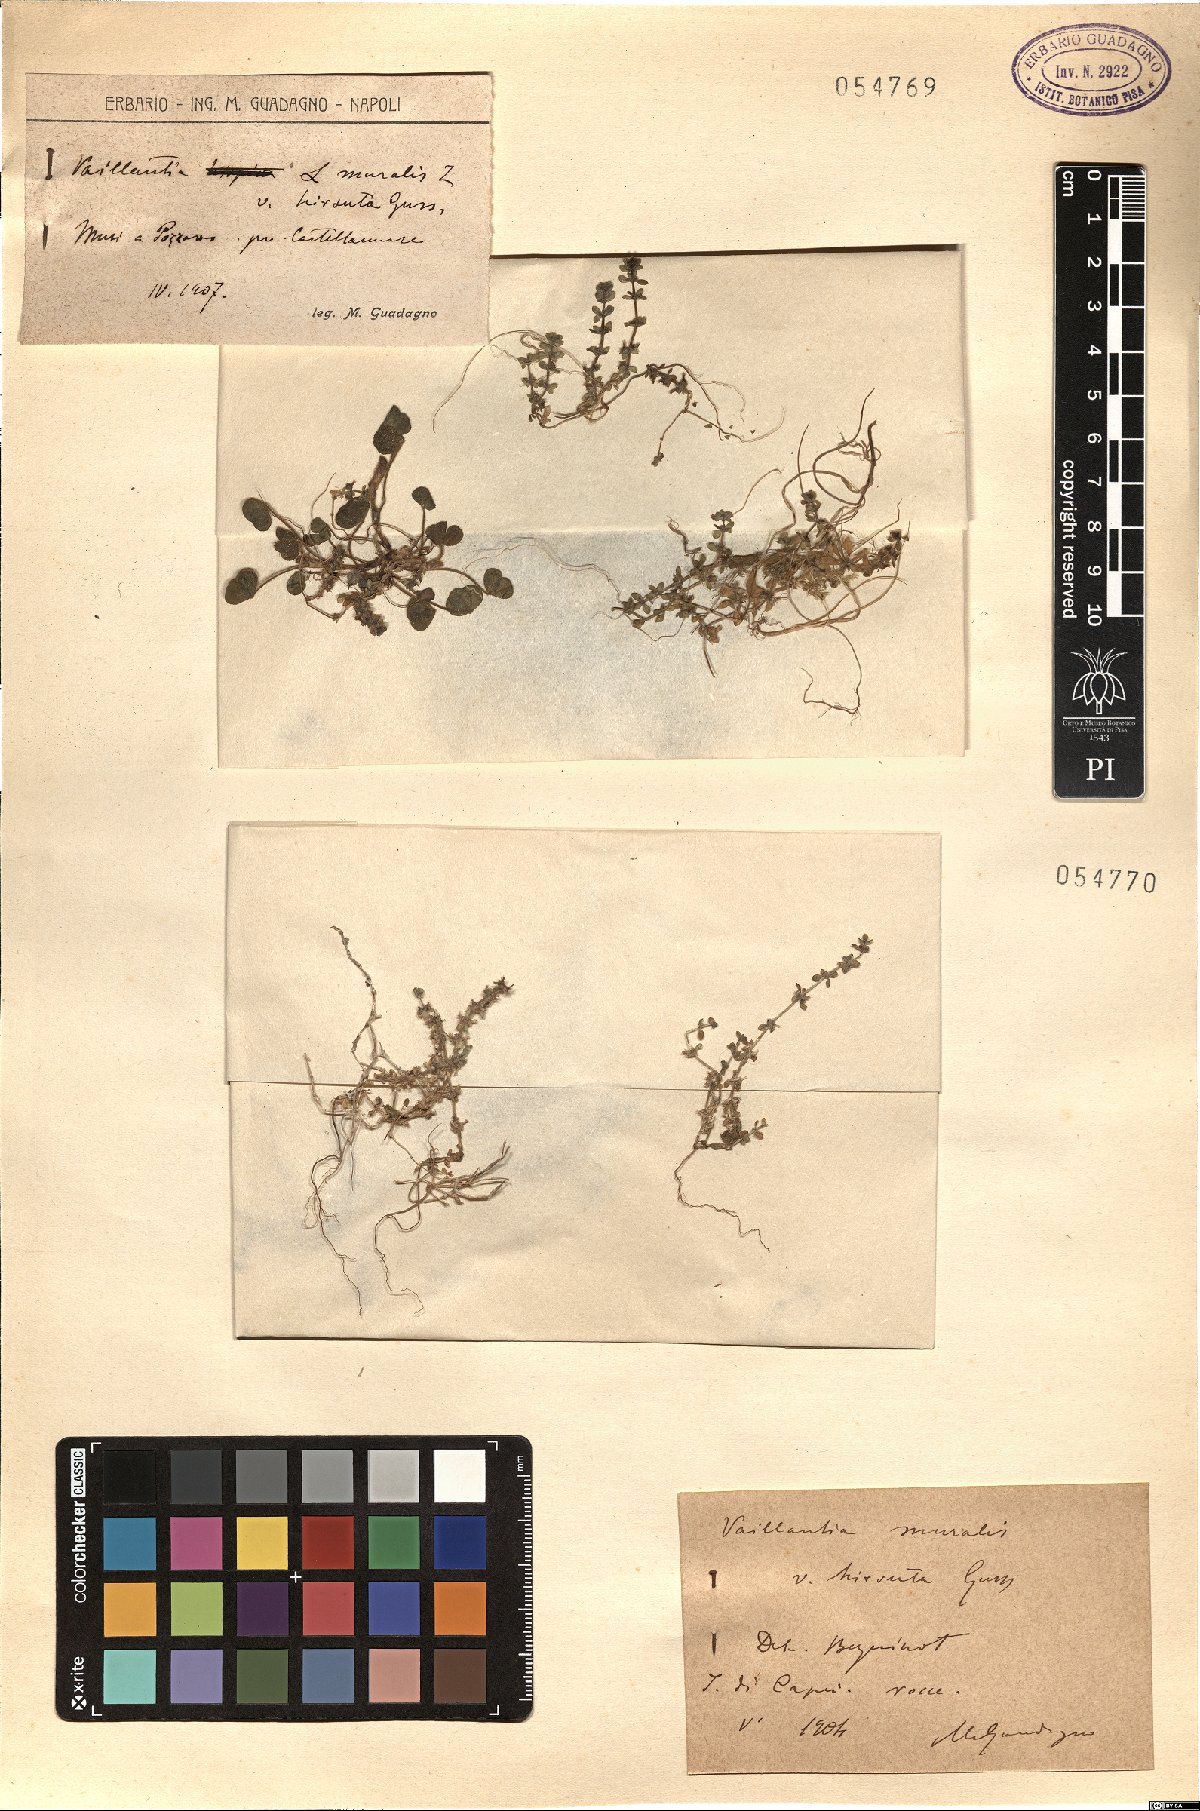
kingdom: Plantae
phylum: Tracheophyta
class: Magnoliopsida
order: Gentianales
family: Rubiaceae
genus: Valantia
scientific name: Valantia muralis
